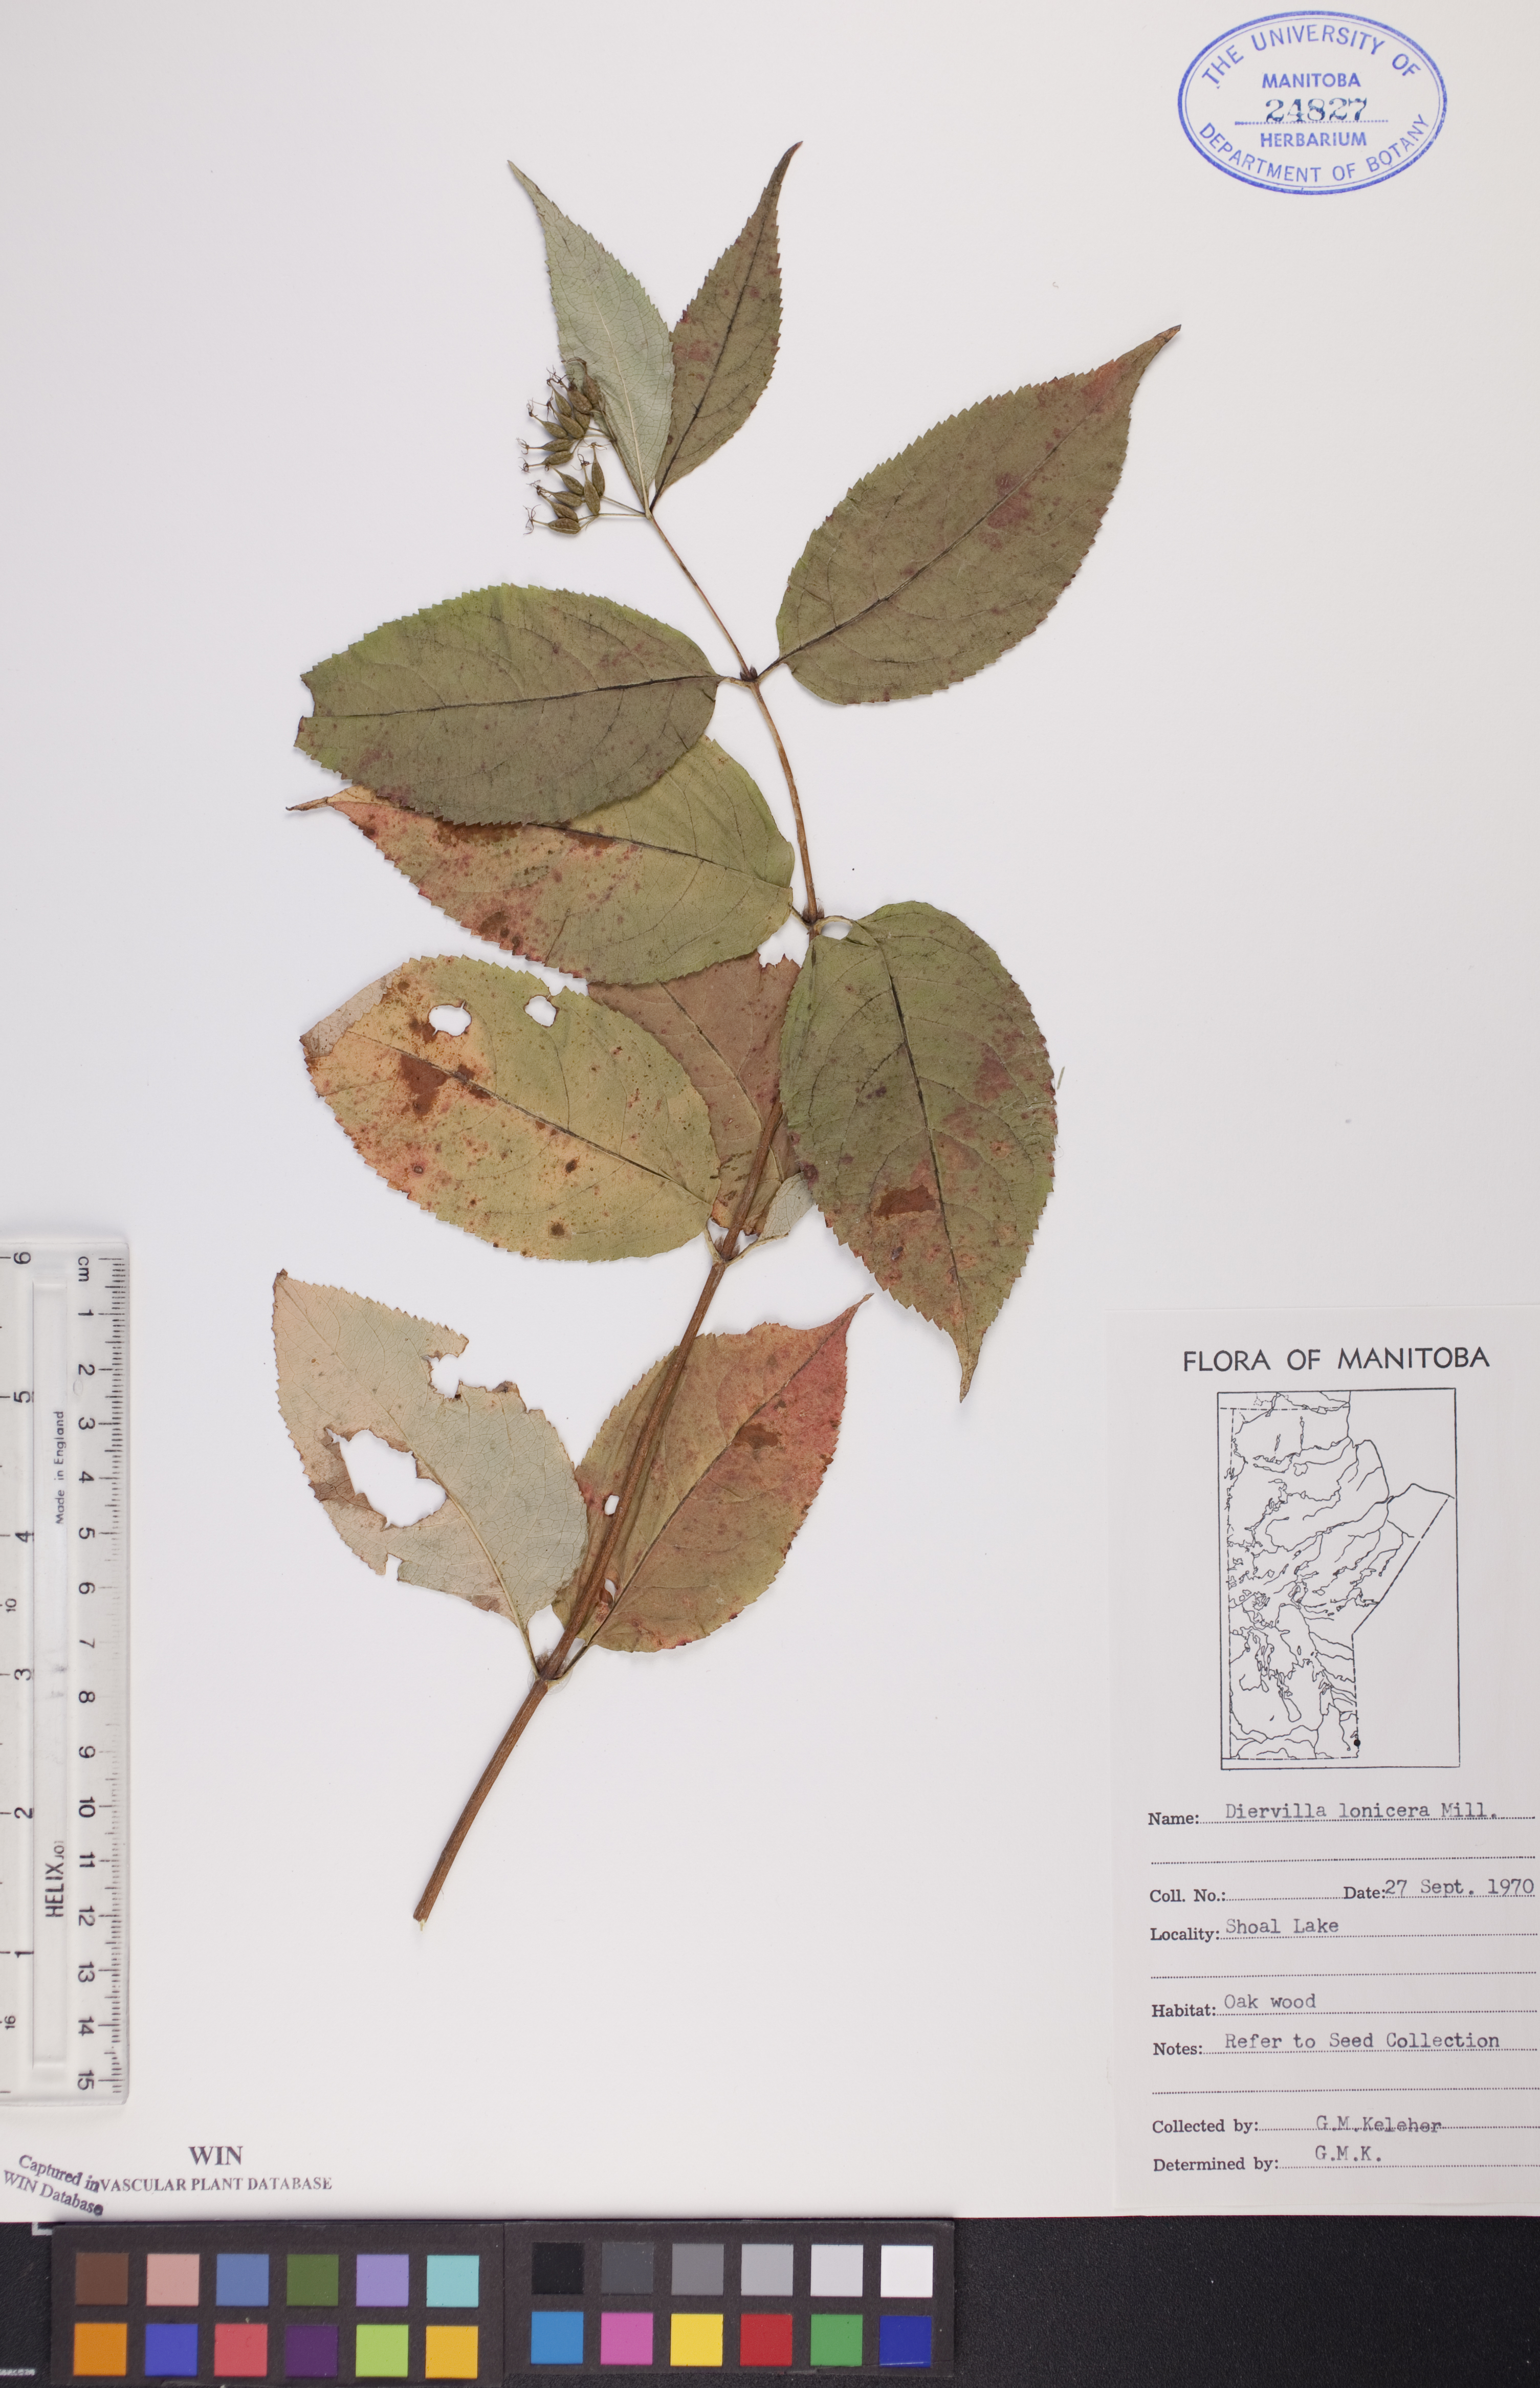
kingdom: Plantae
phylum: Tracheophyta
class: Magnoliopsida
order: Dipsacales
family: Caprifoliaceae
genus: Diervilla
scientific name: Diervilla lonicera
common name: Bush-honeysuckle
